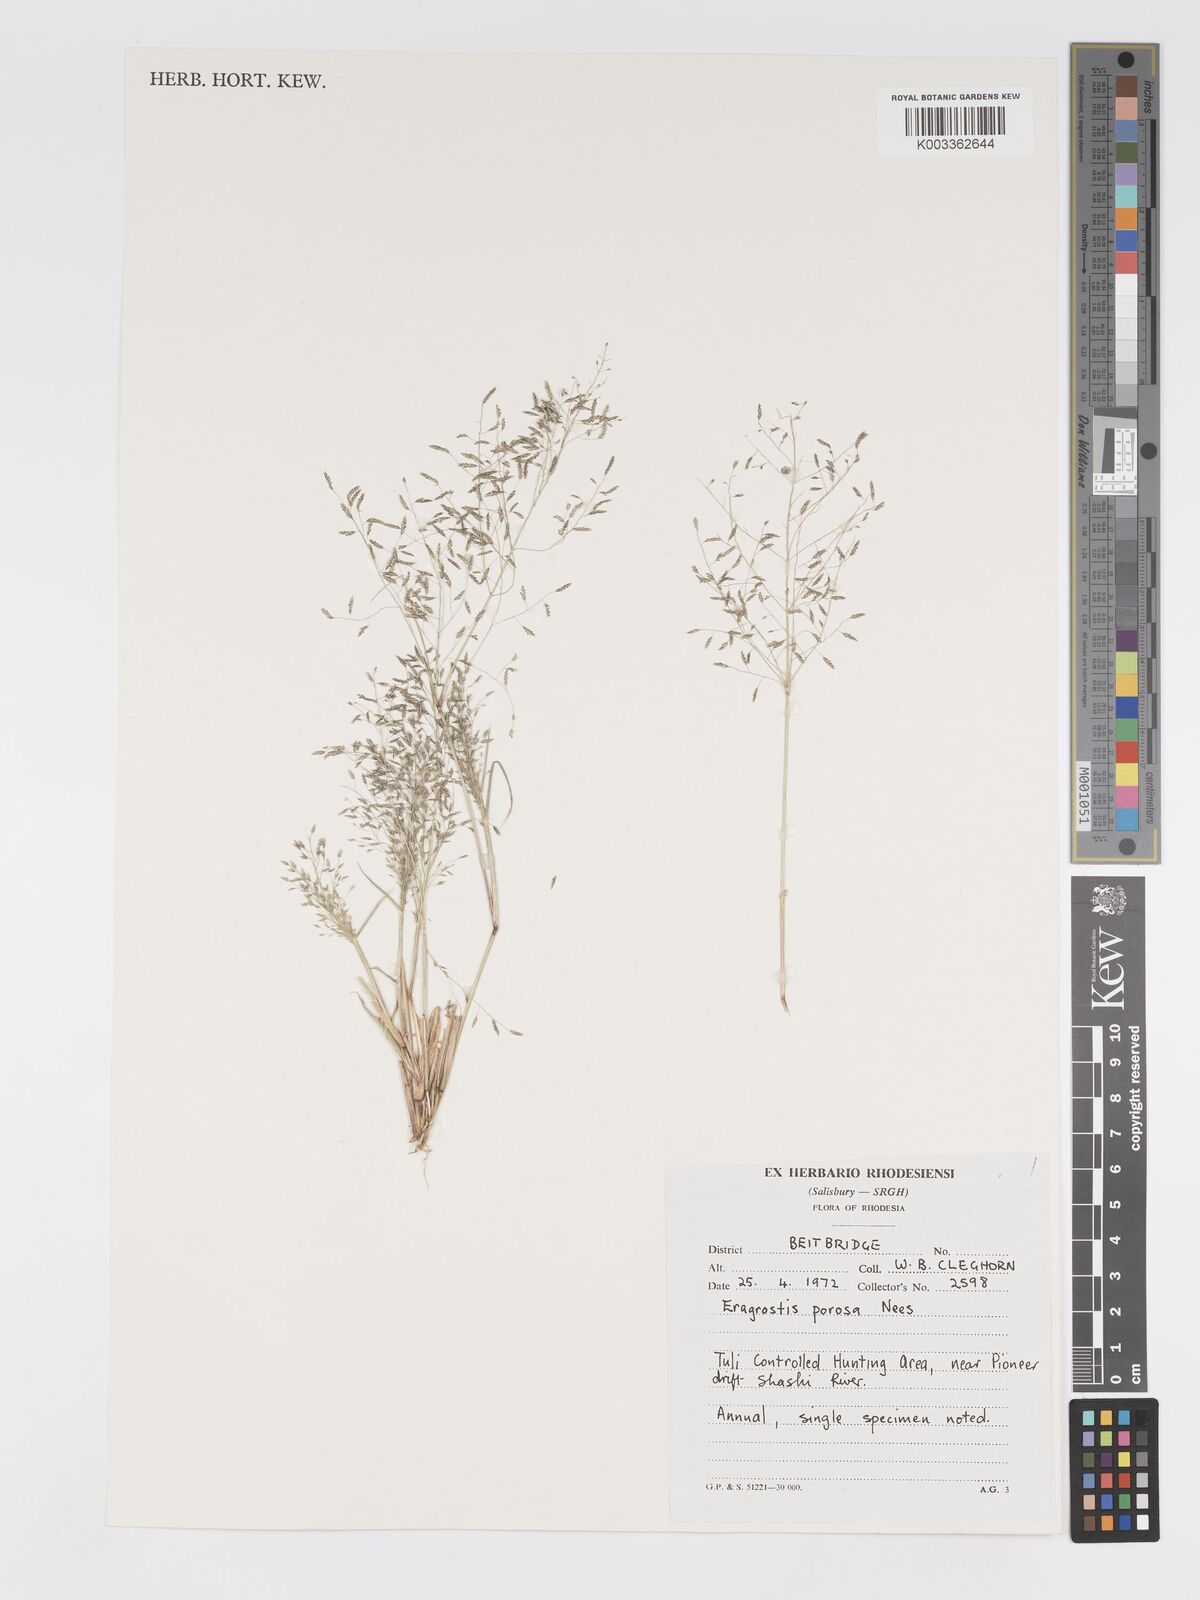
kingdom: Plantae
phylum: Tracheophyta
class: Liliopsida
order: Poales
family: Poaceae
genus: Eragrostis
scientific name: Eragrostis porosa
